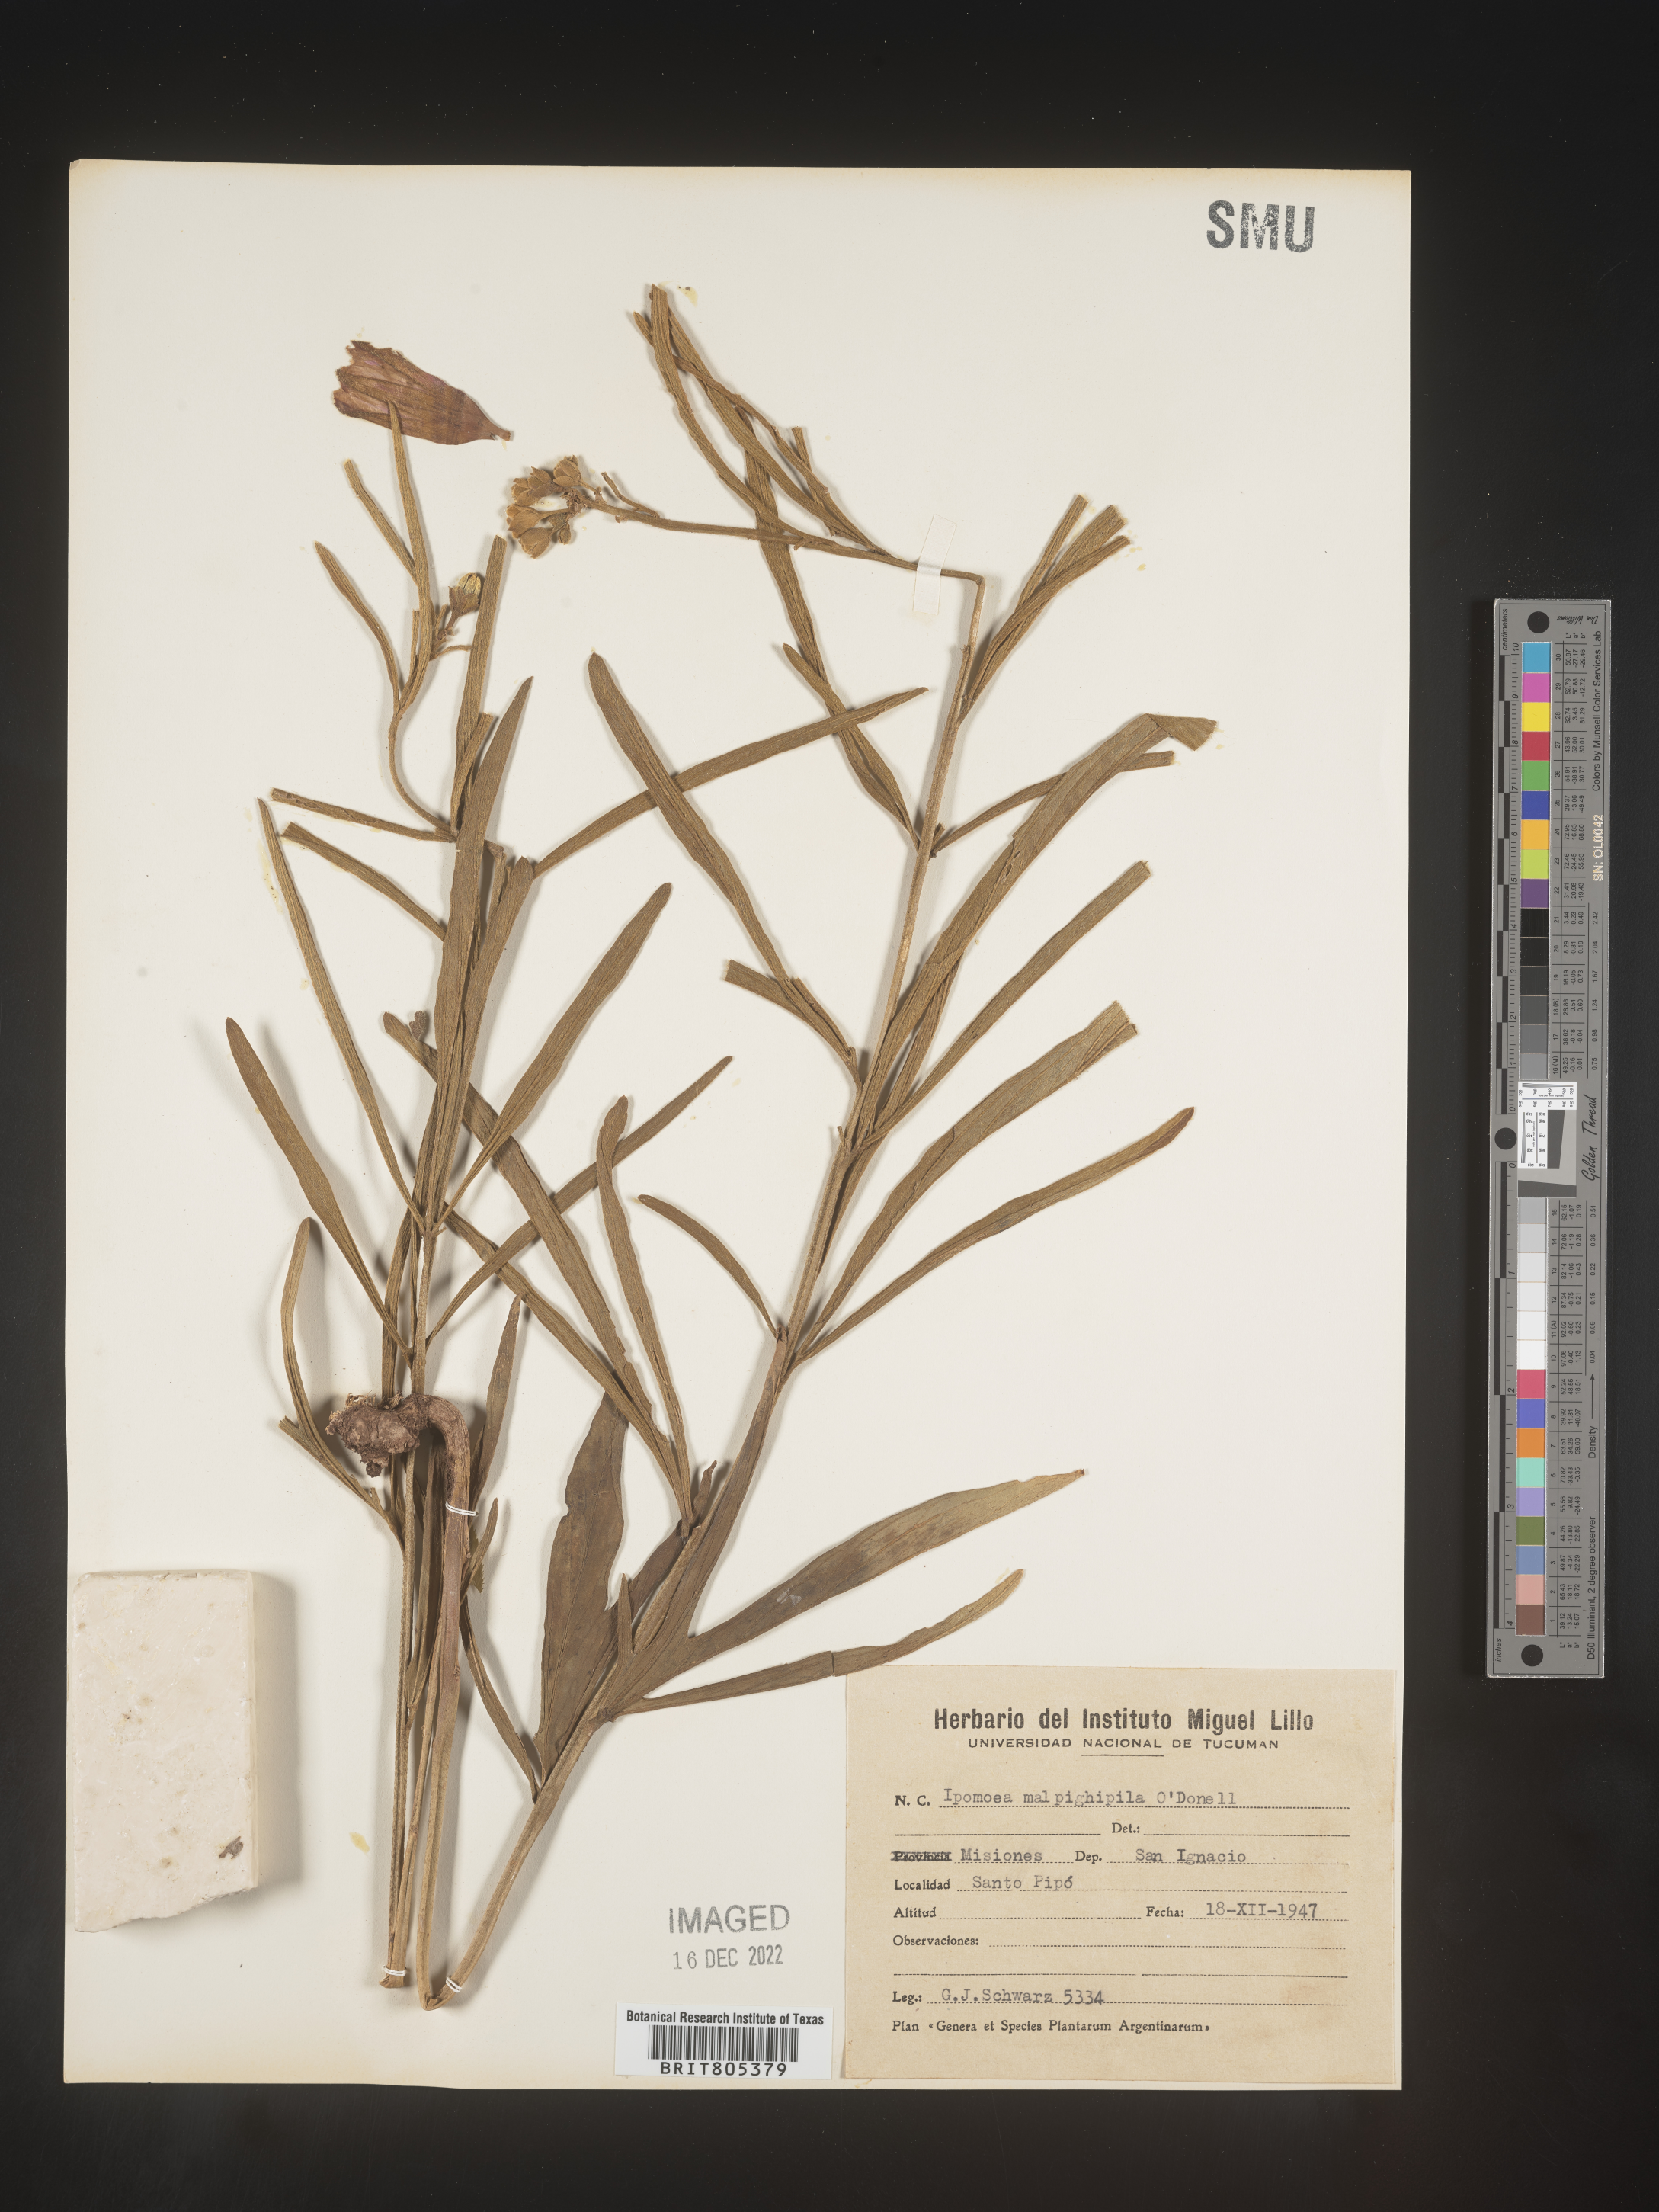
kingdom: Plantae
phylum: Tracheophyta
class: Magnoliopsida
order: Solanales
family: Convolvulaceae
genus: Ipomoea
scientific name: Ipomoea
